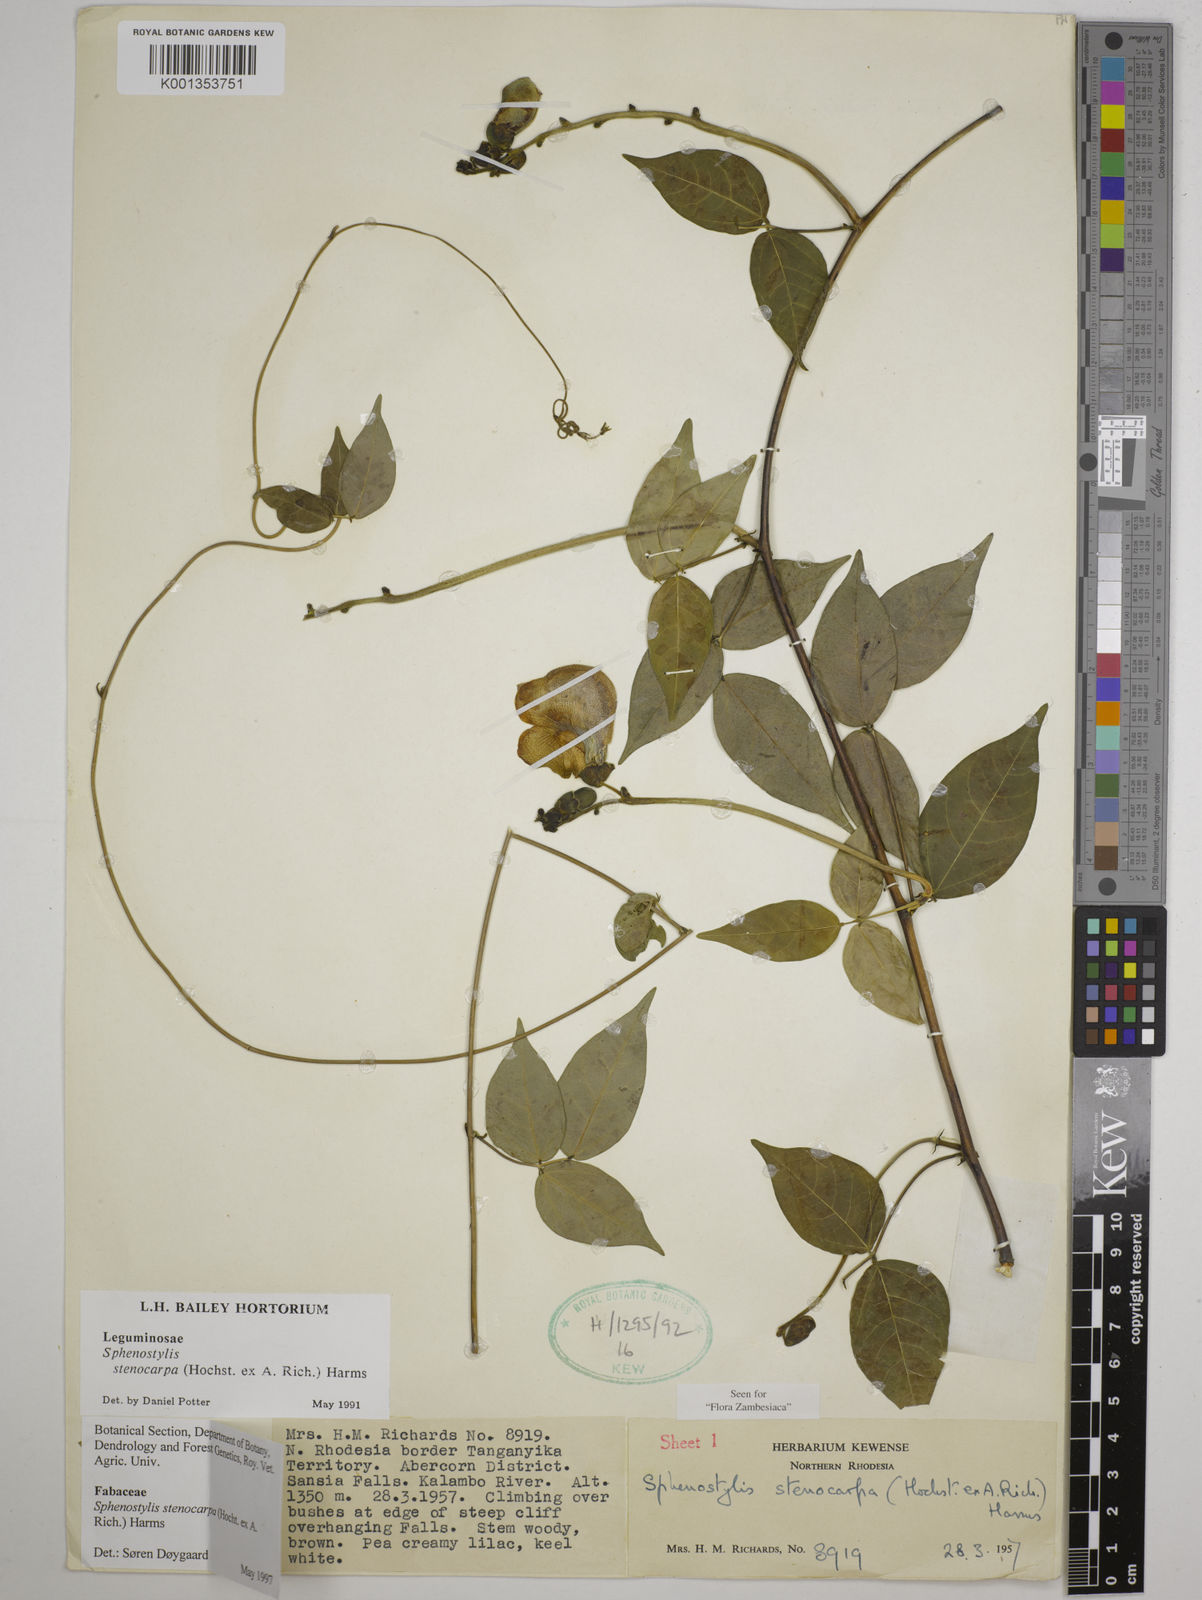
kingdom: Plantae
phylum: Tracheophyta
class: Magnoliopsida
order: Fabales
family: Fabaceae
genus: Sphenostylis
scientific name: Sphenostylis stenocarpa
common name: Yam-pea
